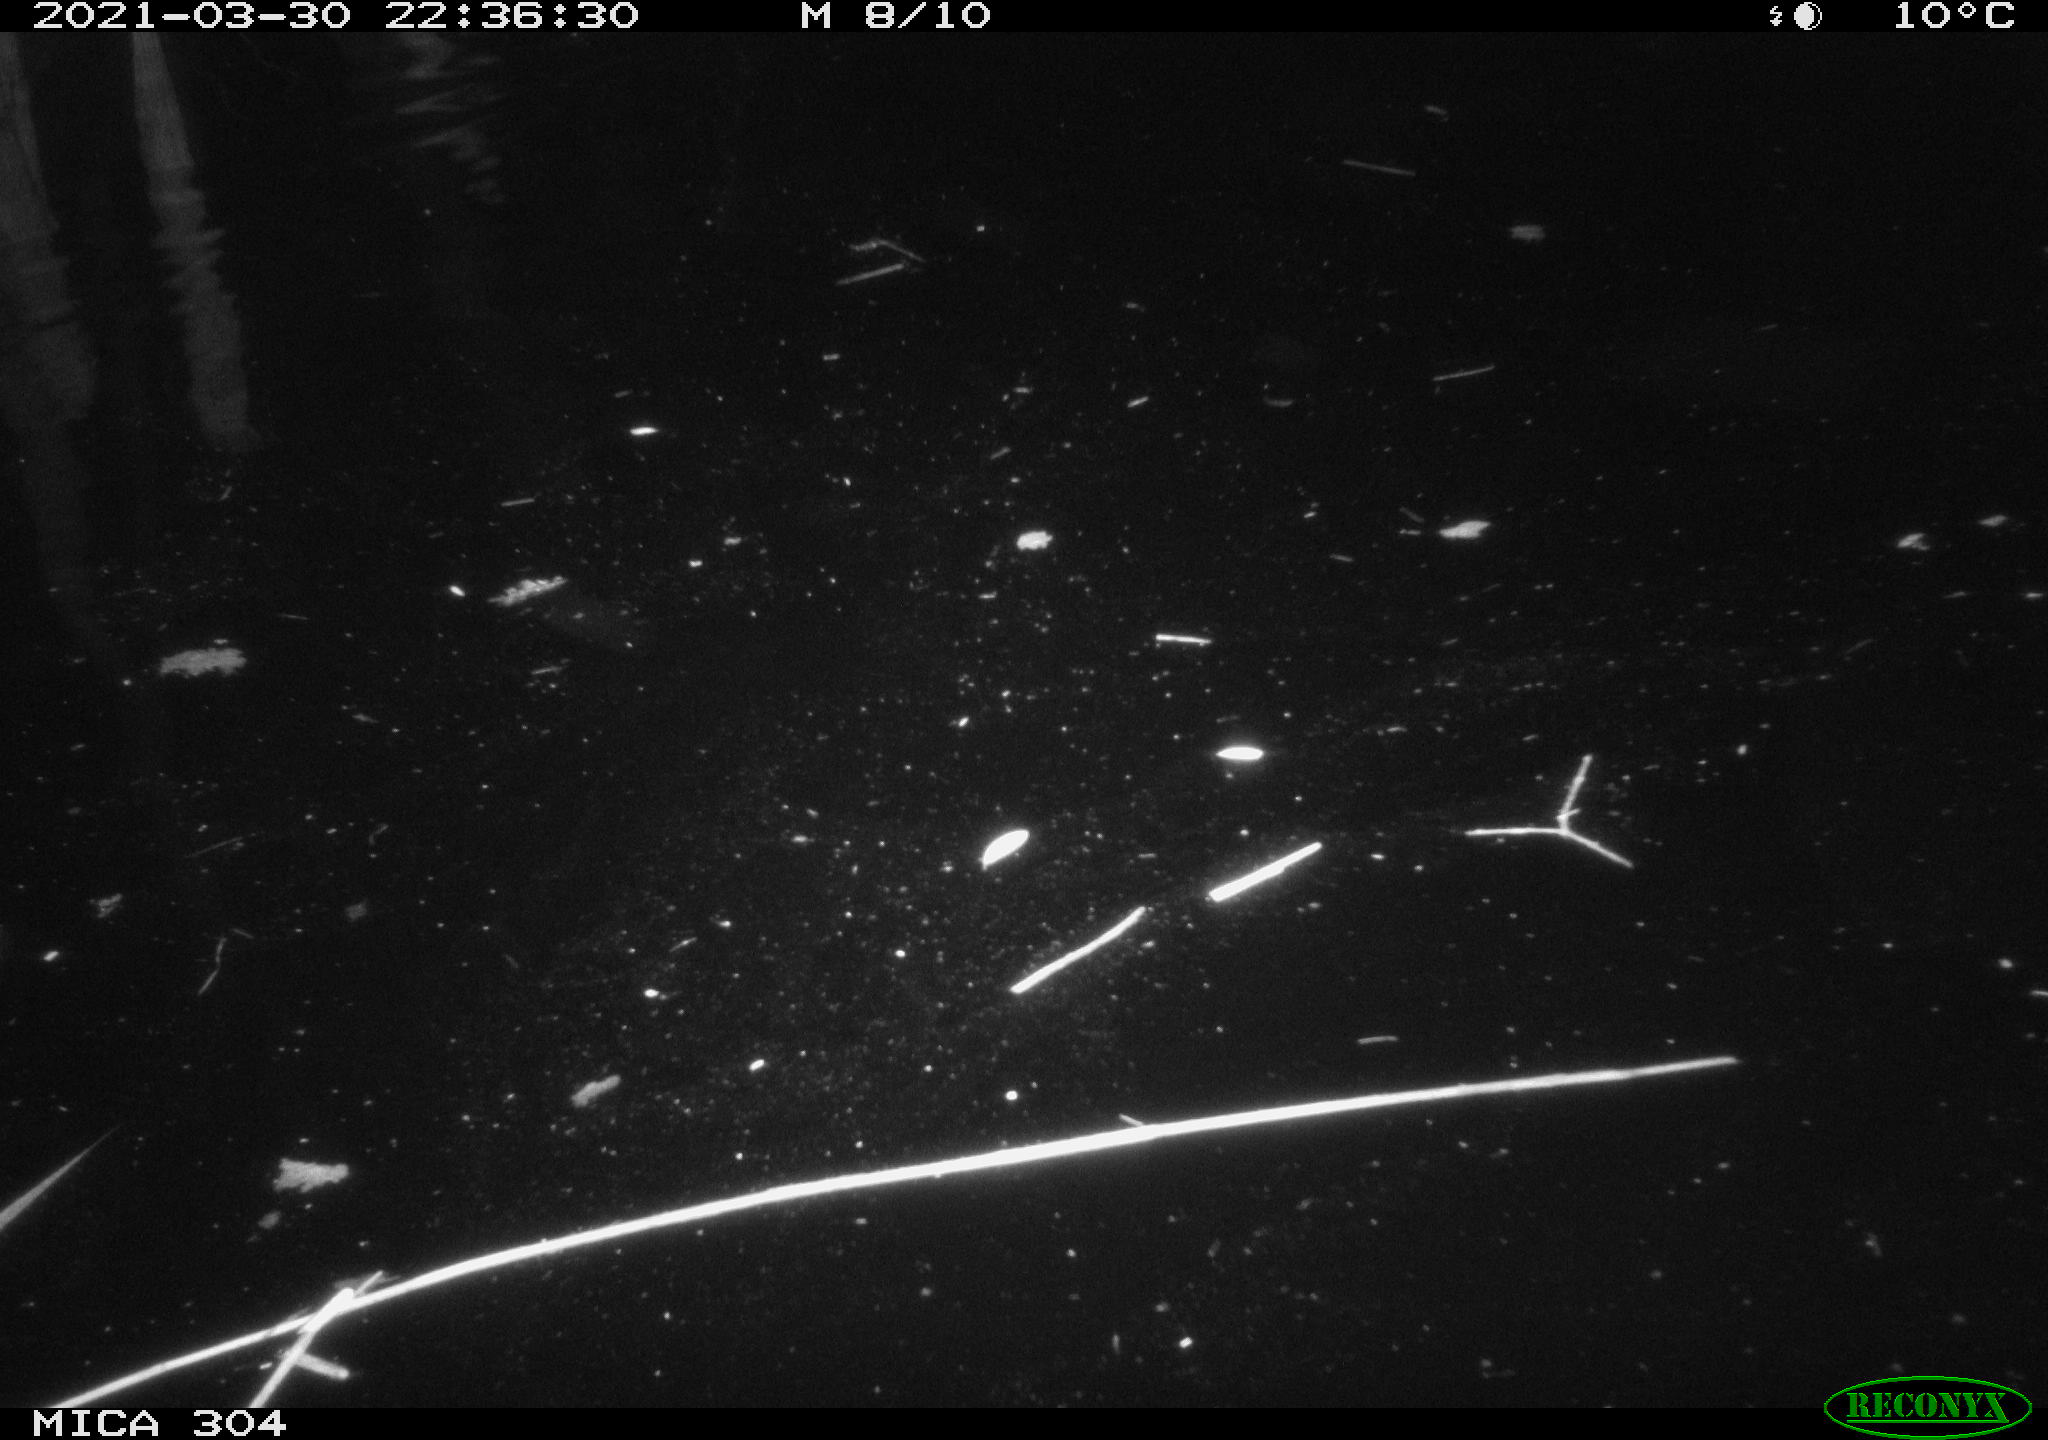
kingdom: Animalia
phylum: Chordata
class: Aves
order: Anseriformes
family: Anatidae
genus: Anas
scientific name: Anas platyrhynchos
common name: Mallard
